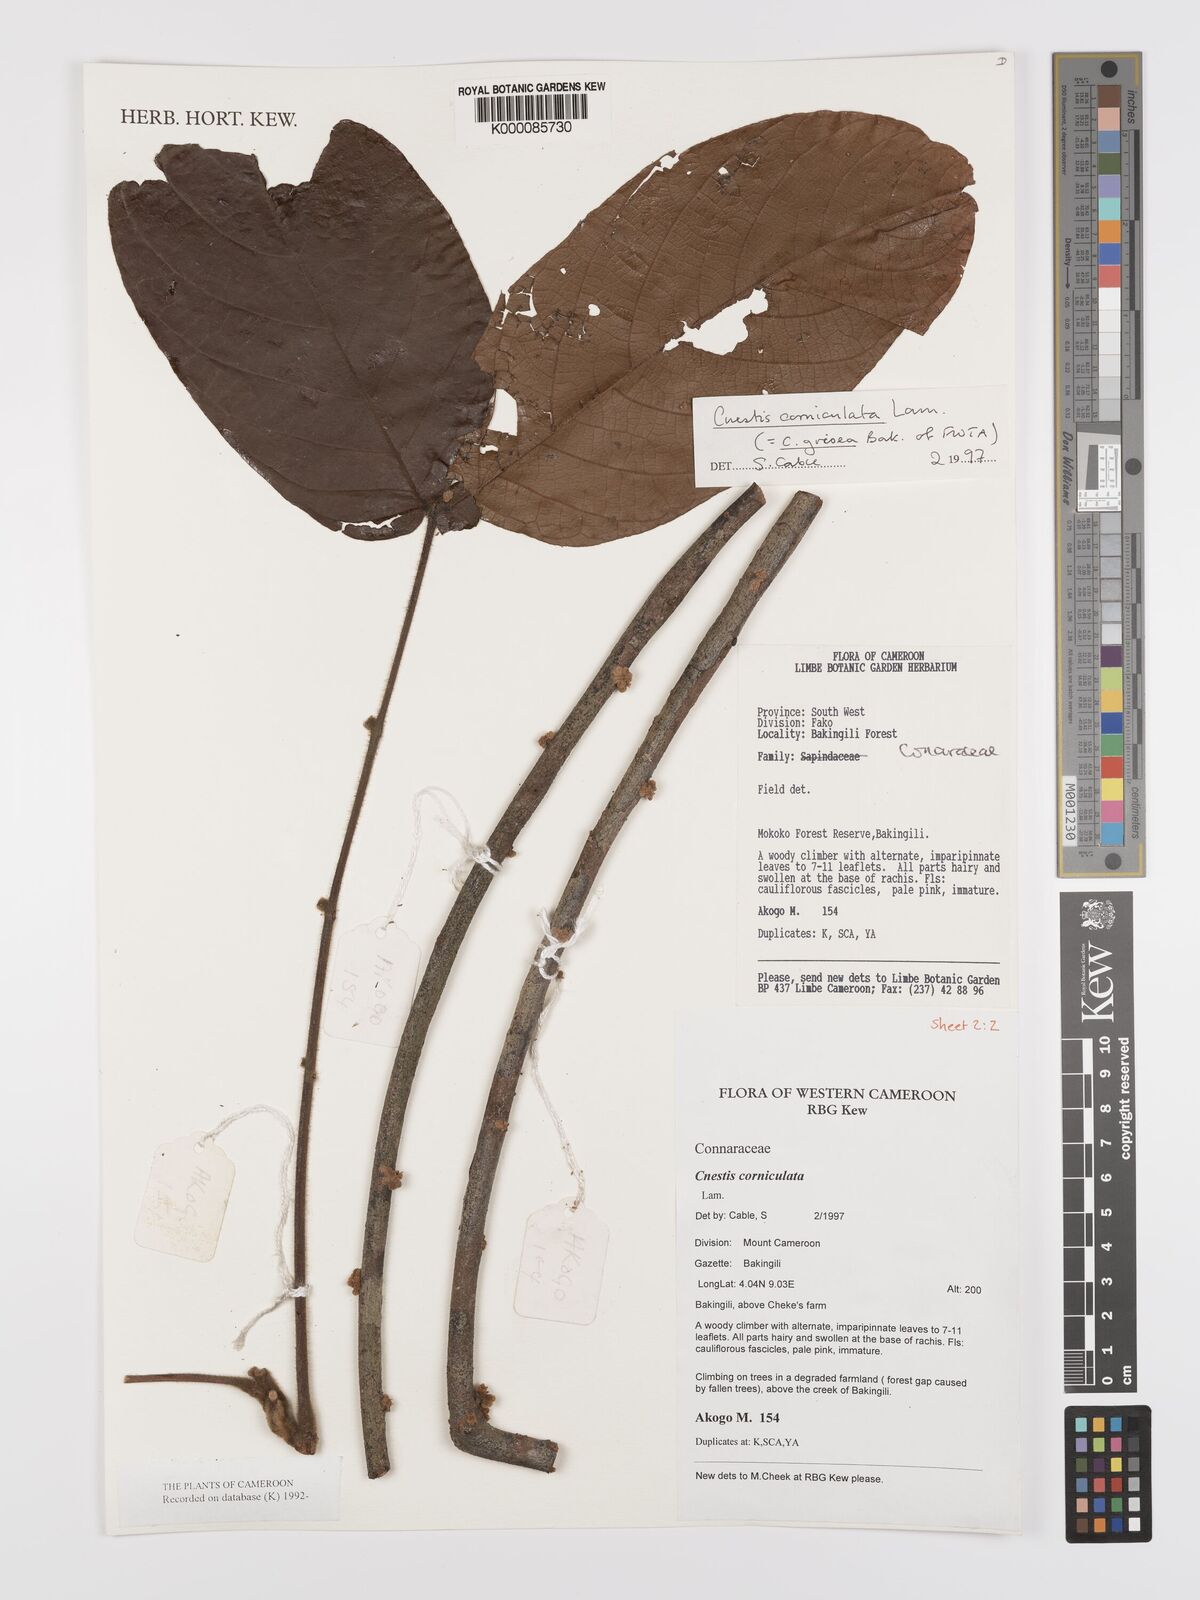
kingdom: Plantae
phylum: Tracheophyta
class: Magnoliopsida
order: Oxalidales
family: Connaraceae
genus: Cnestis
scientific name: Cnestis corniculata
